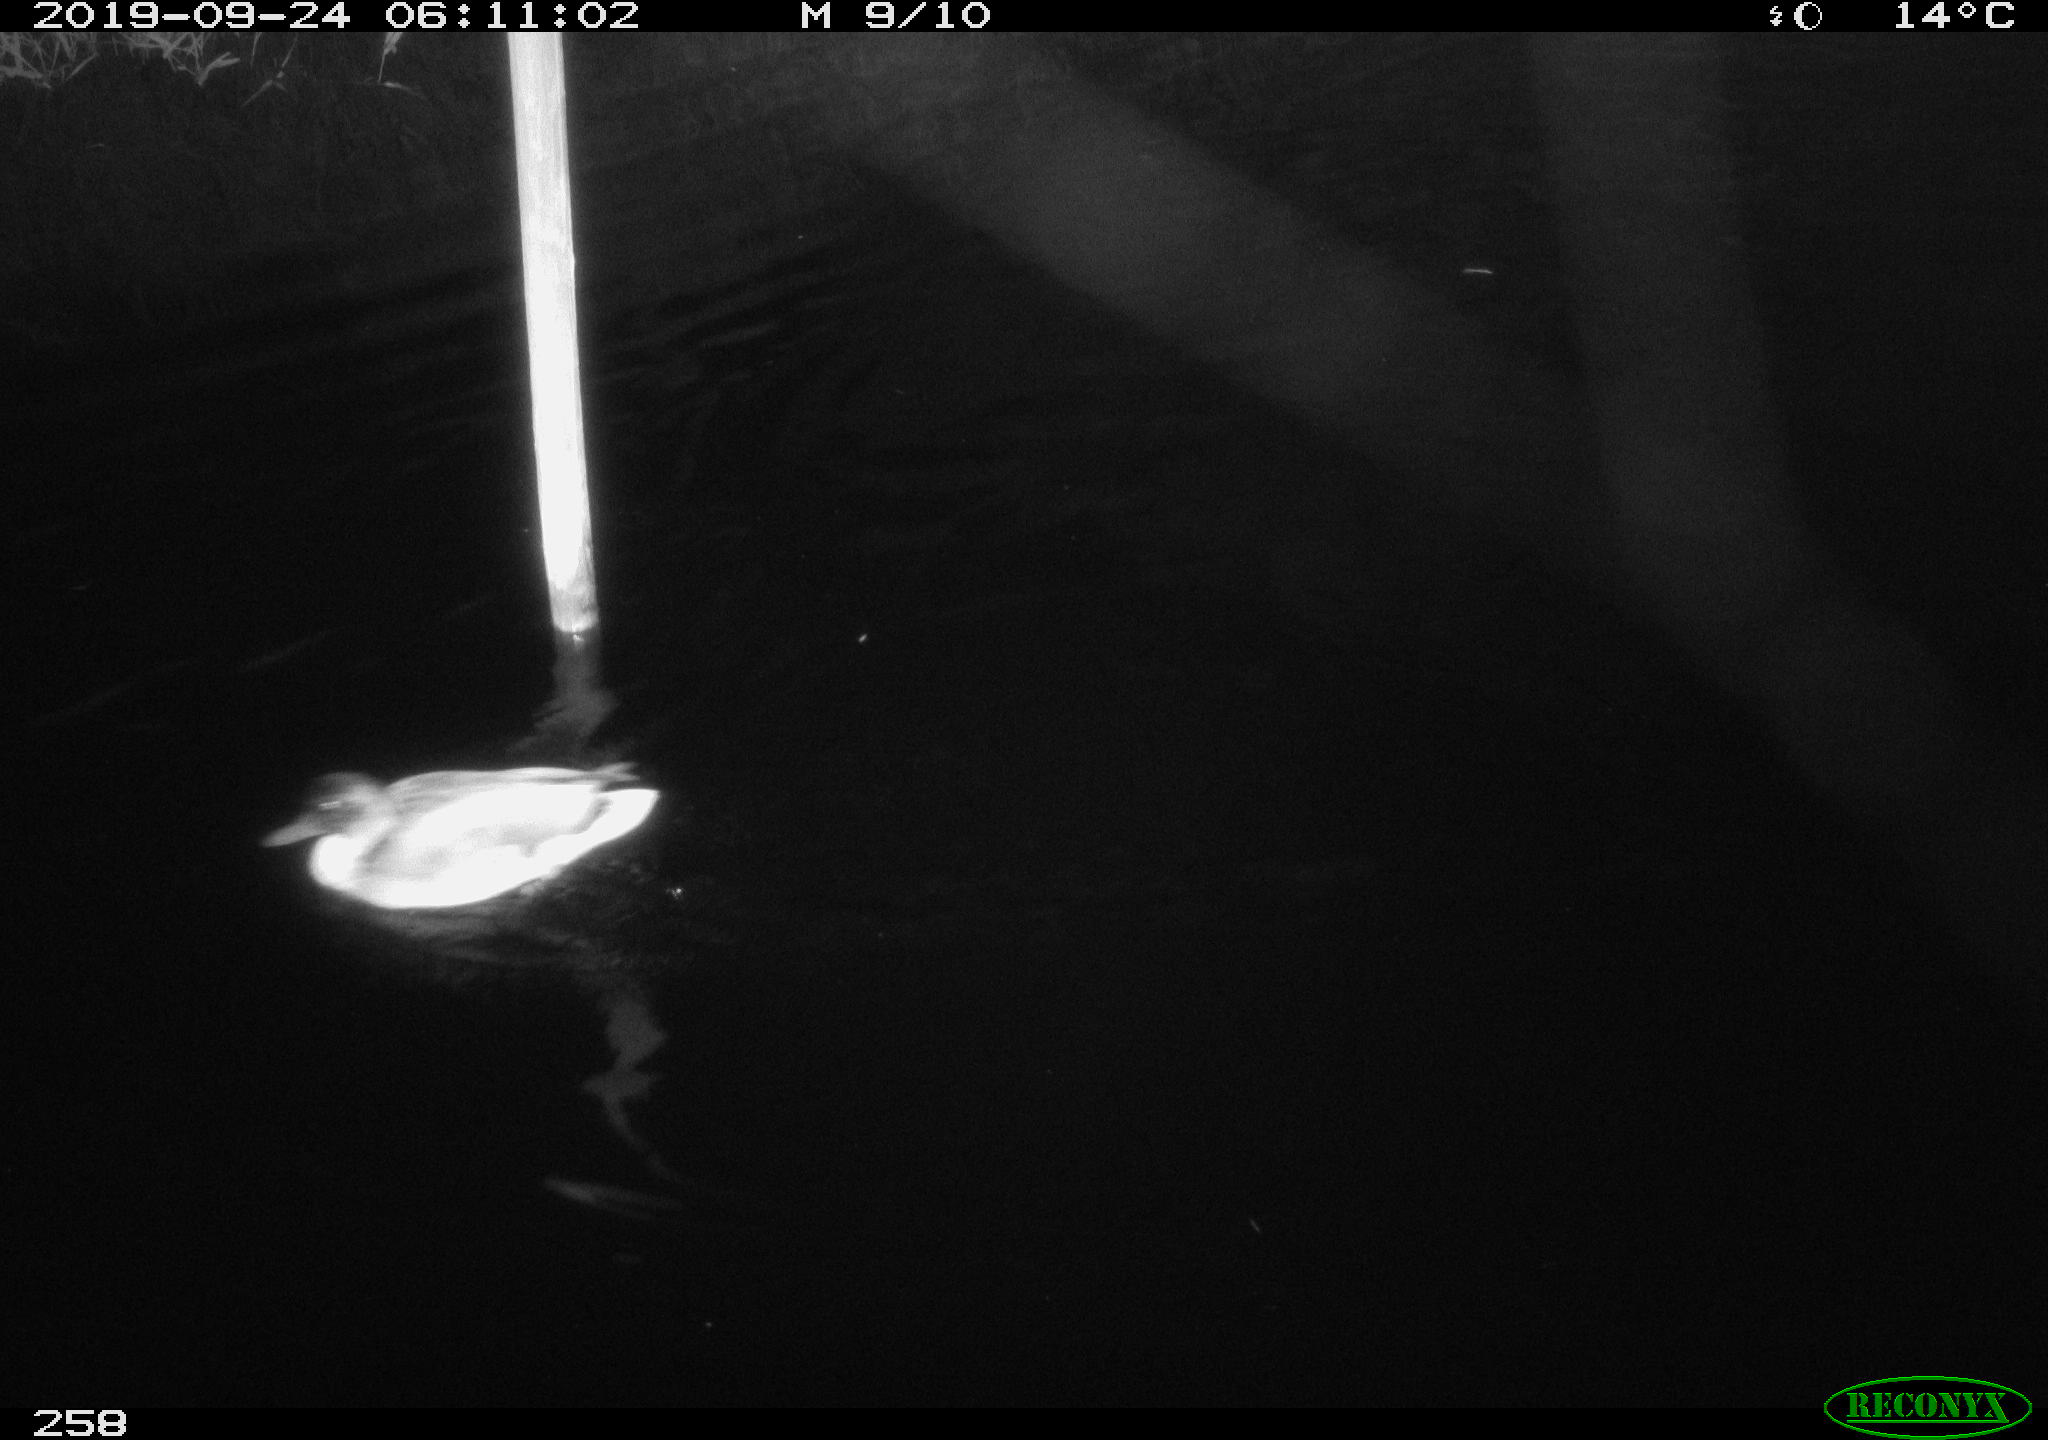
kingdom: Animalia
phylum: Chordata
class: Aves
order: Anseriformes
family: Anatidae
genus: Anas
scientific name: Anas platyrhynchos
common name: Mallard
